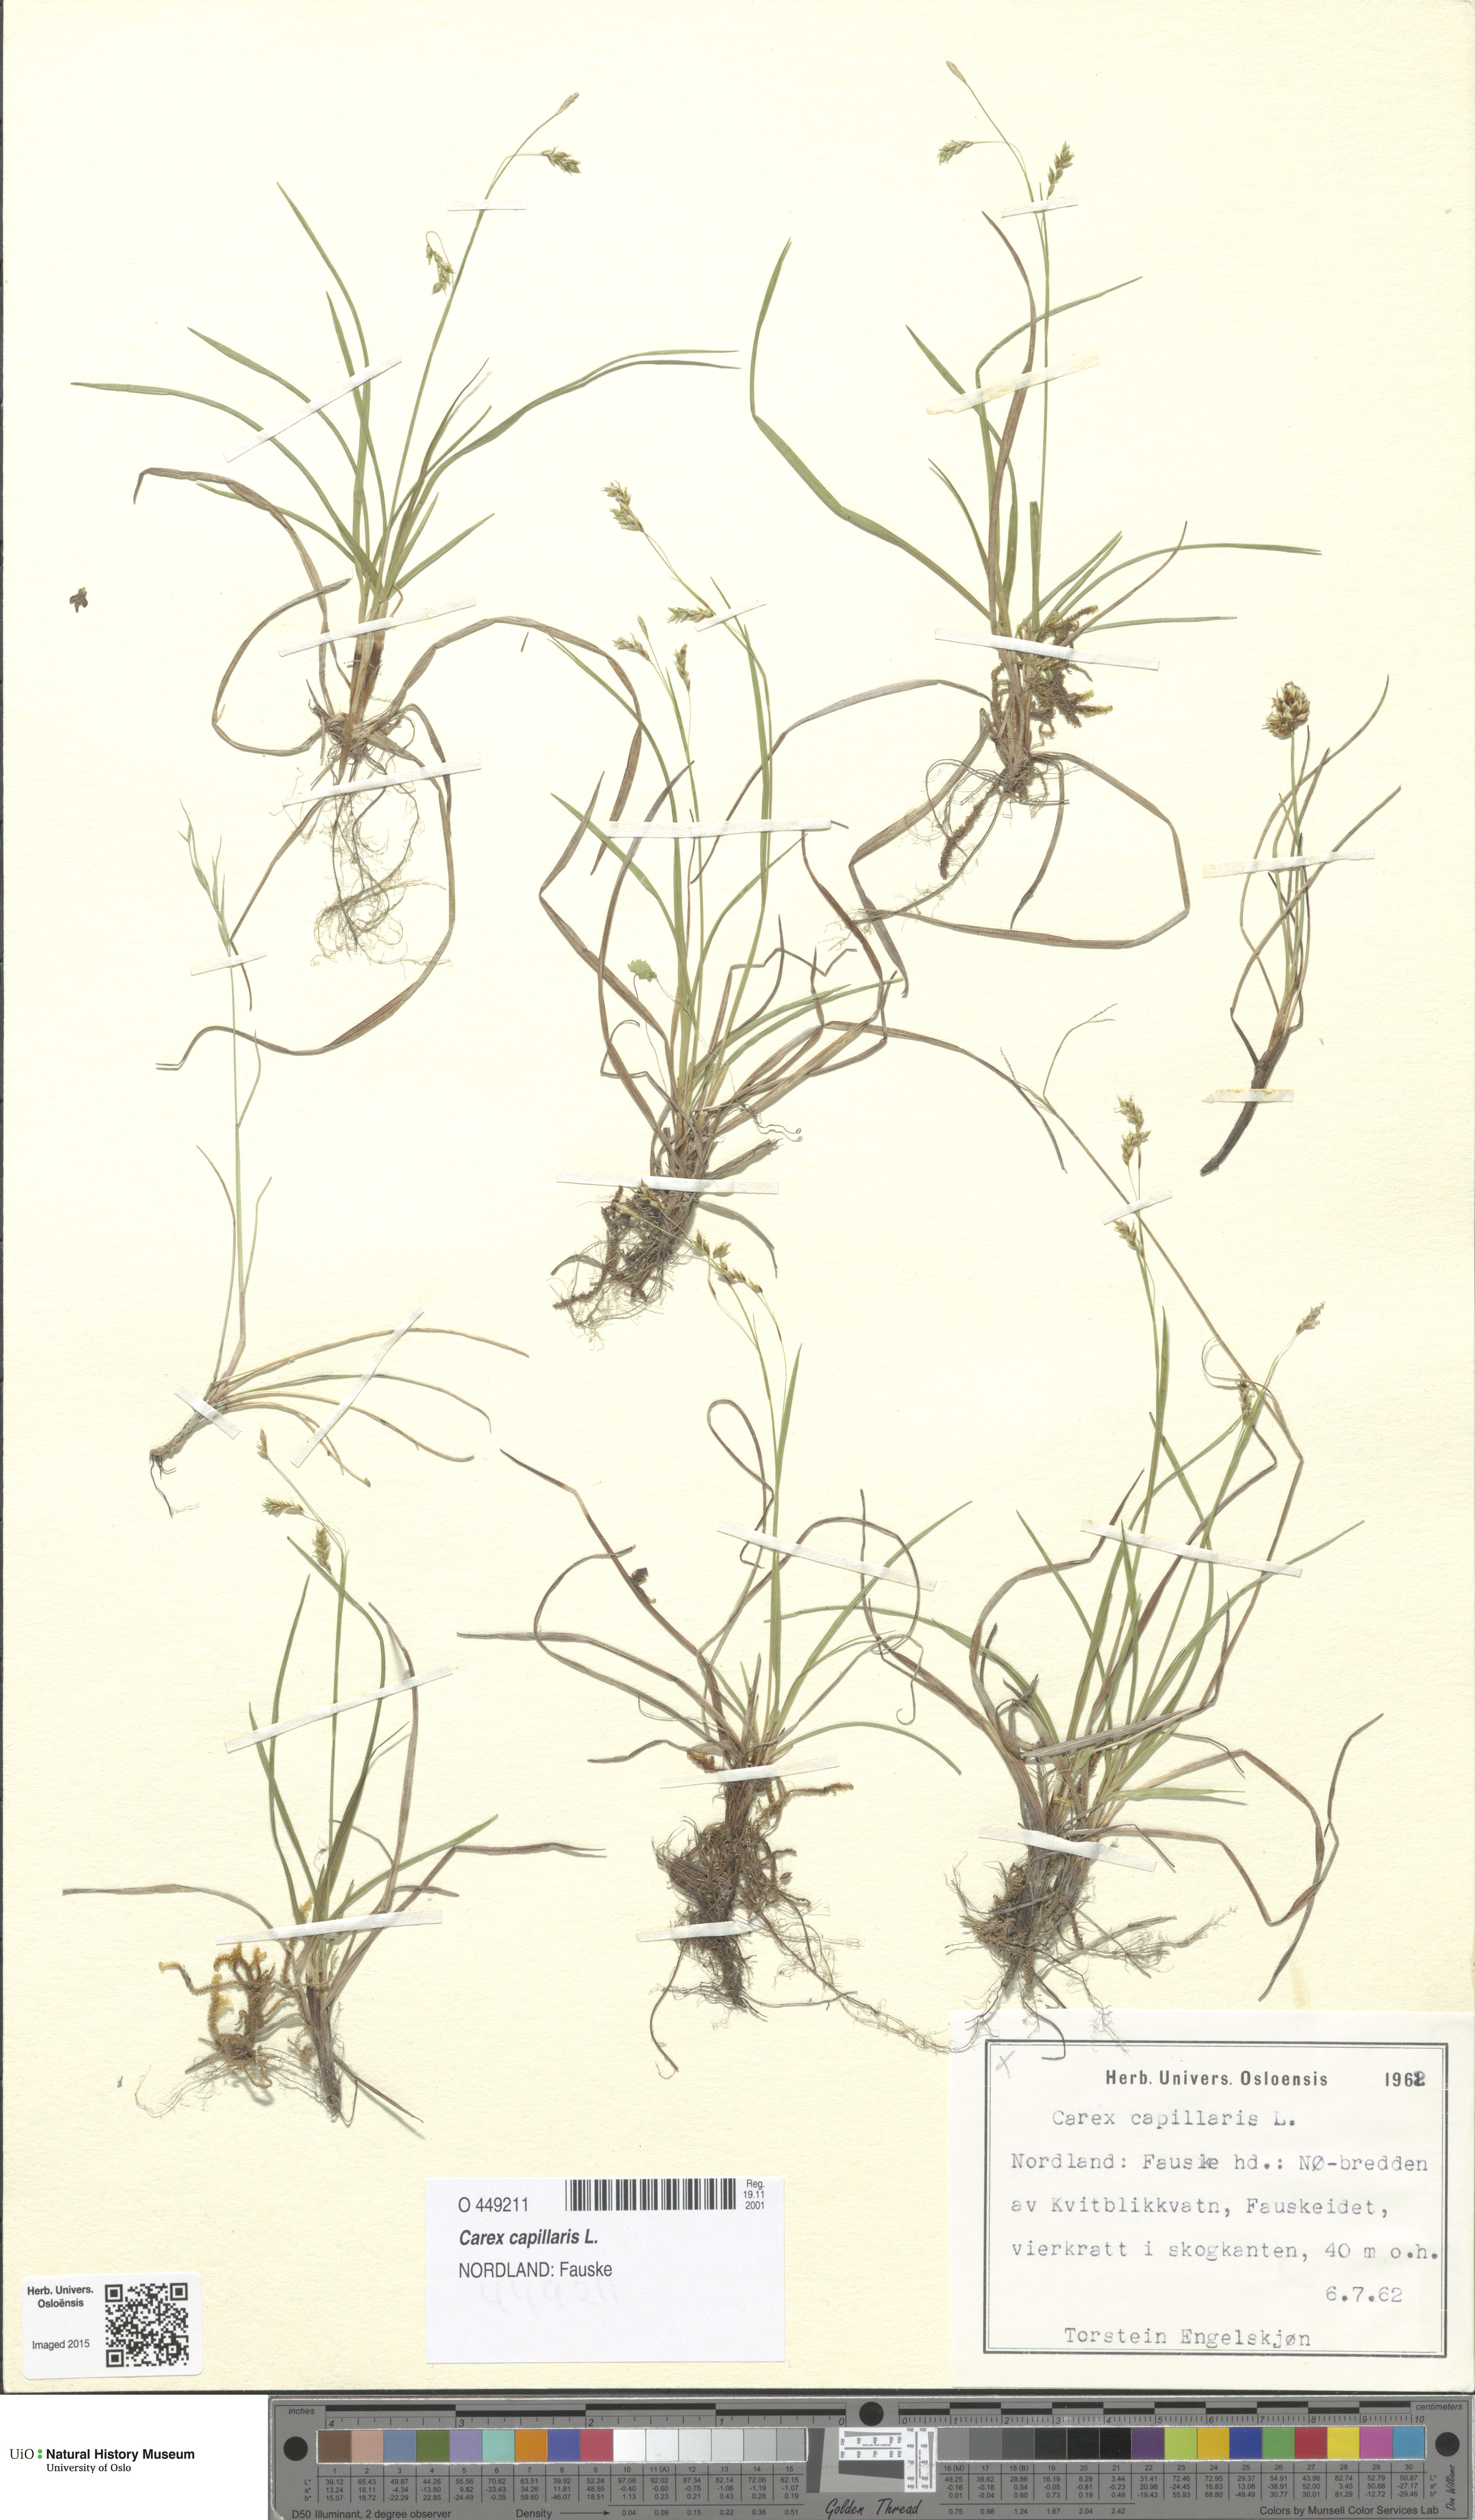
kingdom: Plantae
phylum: Tracheophyta
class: Liliopsida
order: Poales
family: Cyperaceae
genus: Carex
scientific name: Carex capillaris
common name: Hair sedge
